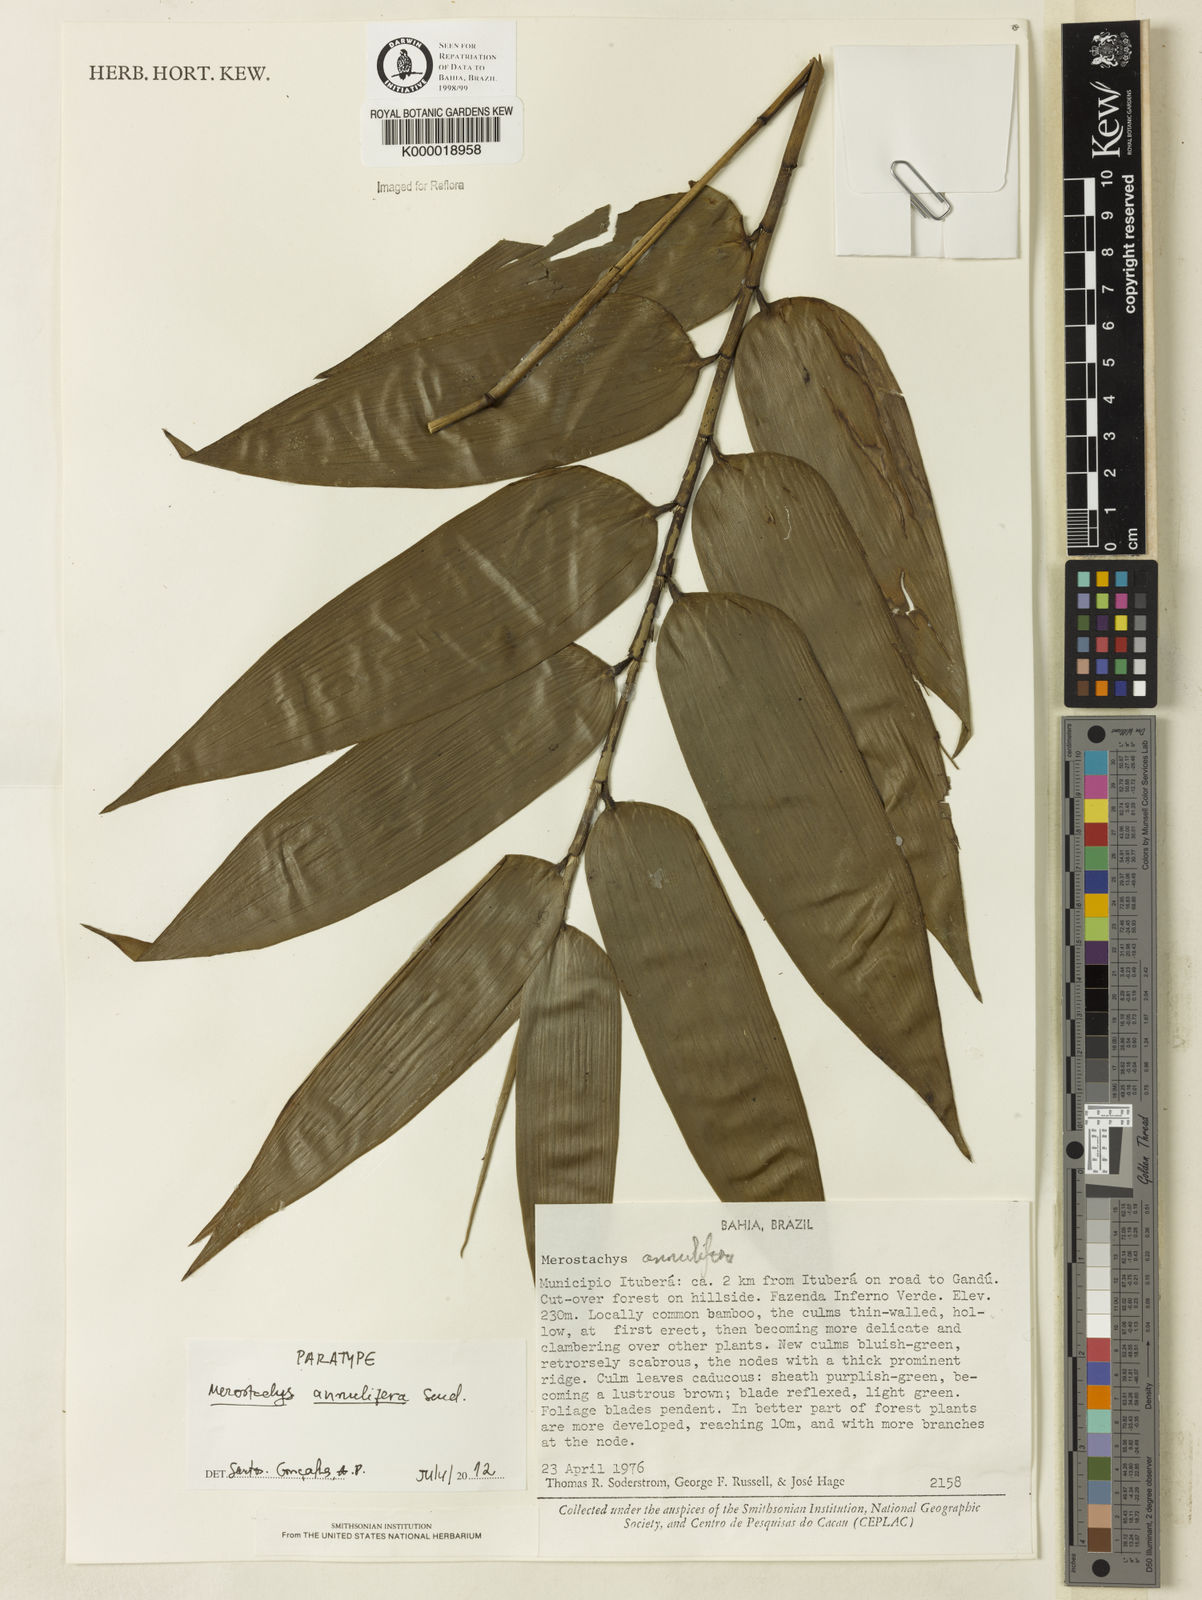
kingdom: Plantae
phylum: Tracheophyta
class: Liliopsida
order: Poales
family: Poaceae
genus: Merostachys
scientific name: Merostachys annulifera
